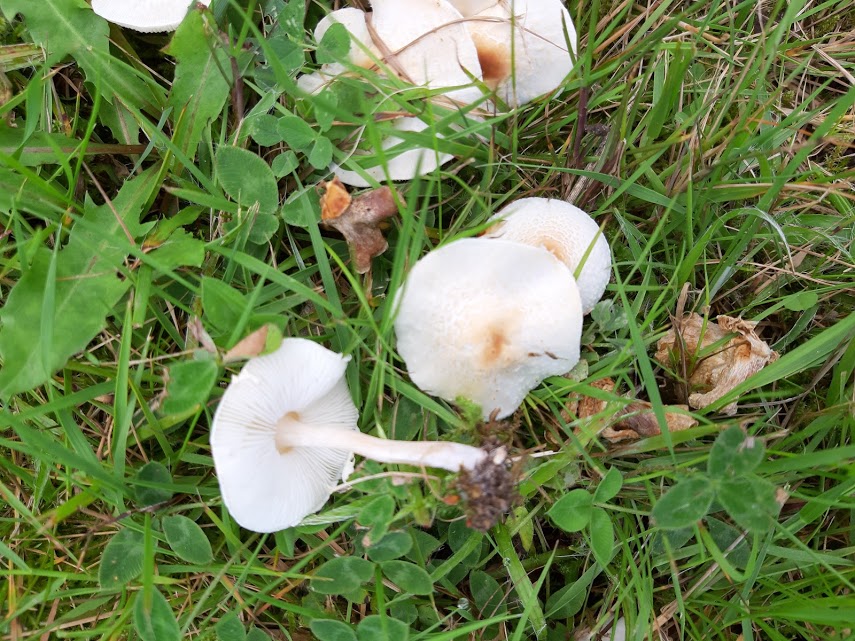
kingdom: Fungi
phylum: Basidiomycota
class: Agaricomycetes
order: Agaricales
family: Agaricaceae
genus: Lepiota
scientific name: Lepiota cristata
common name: stinkende parasolhat
